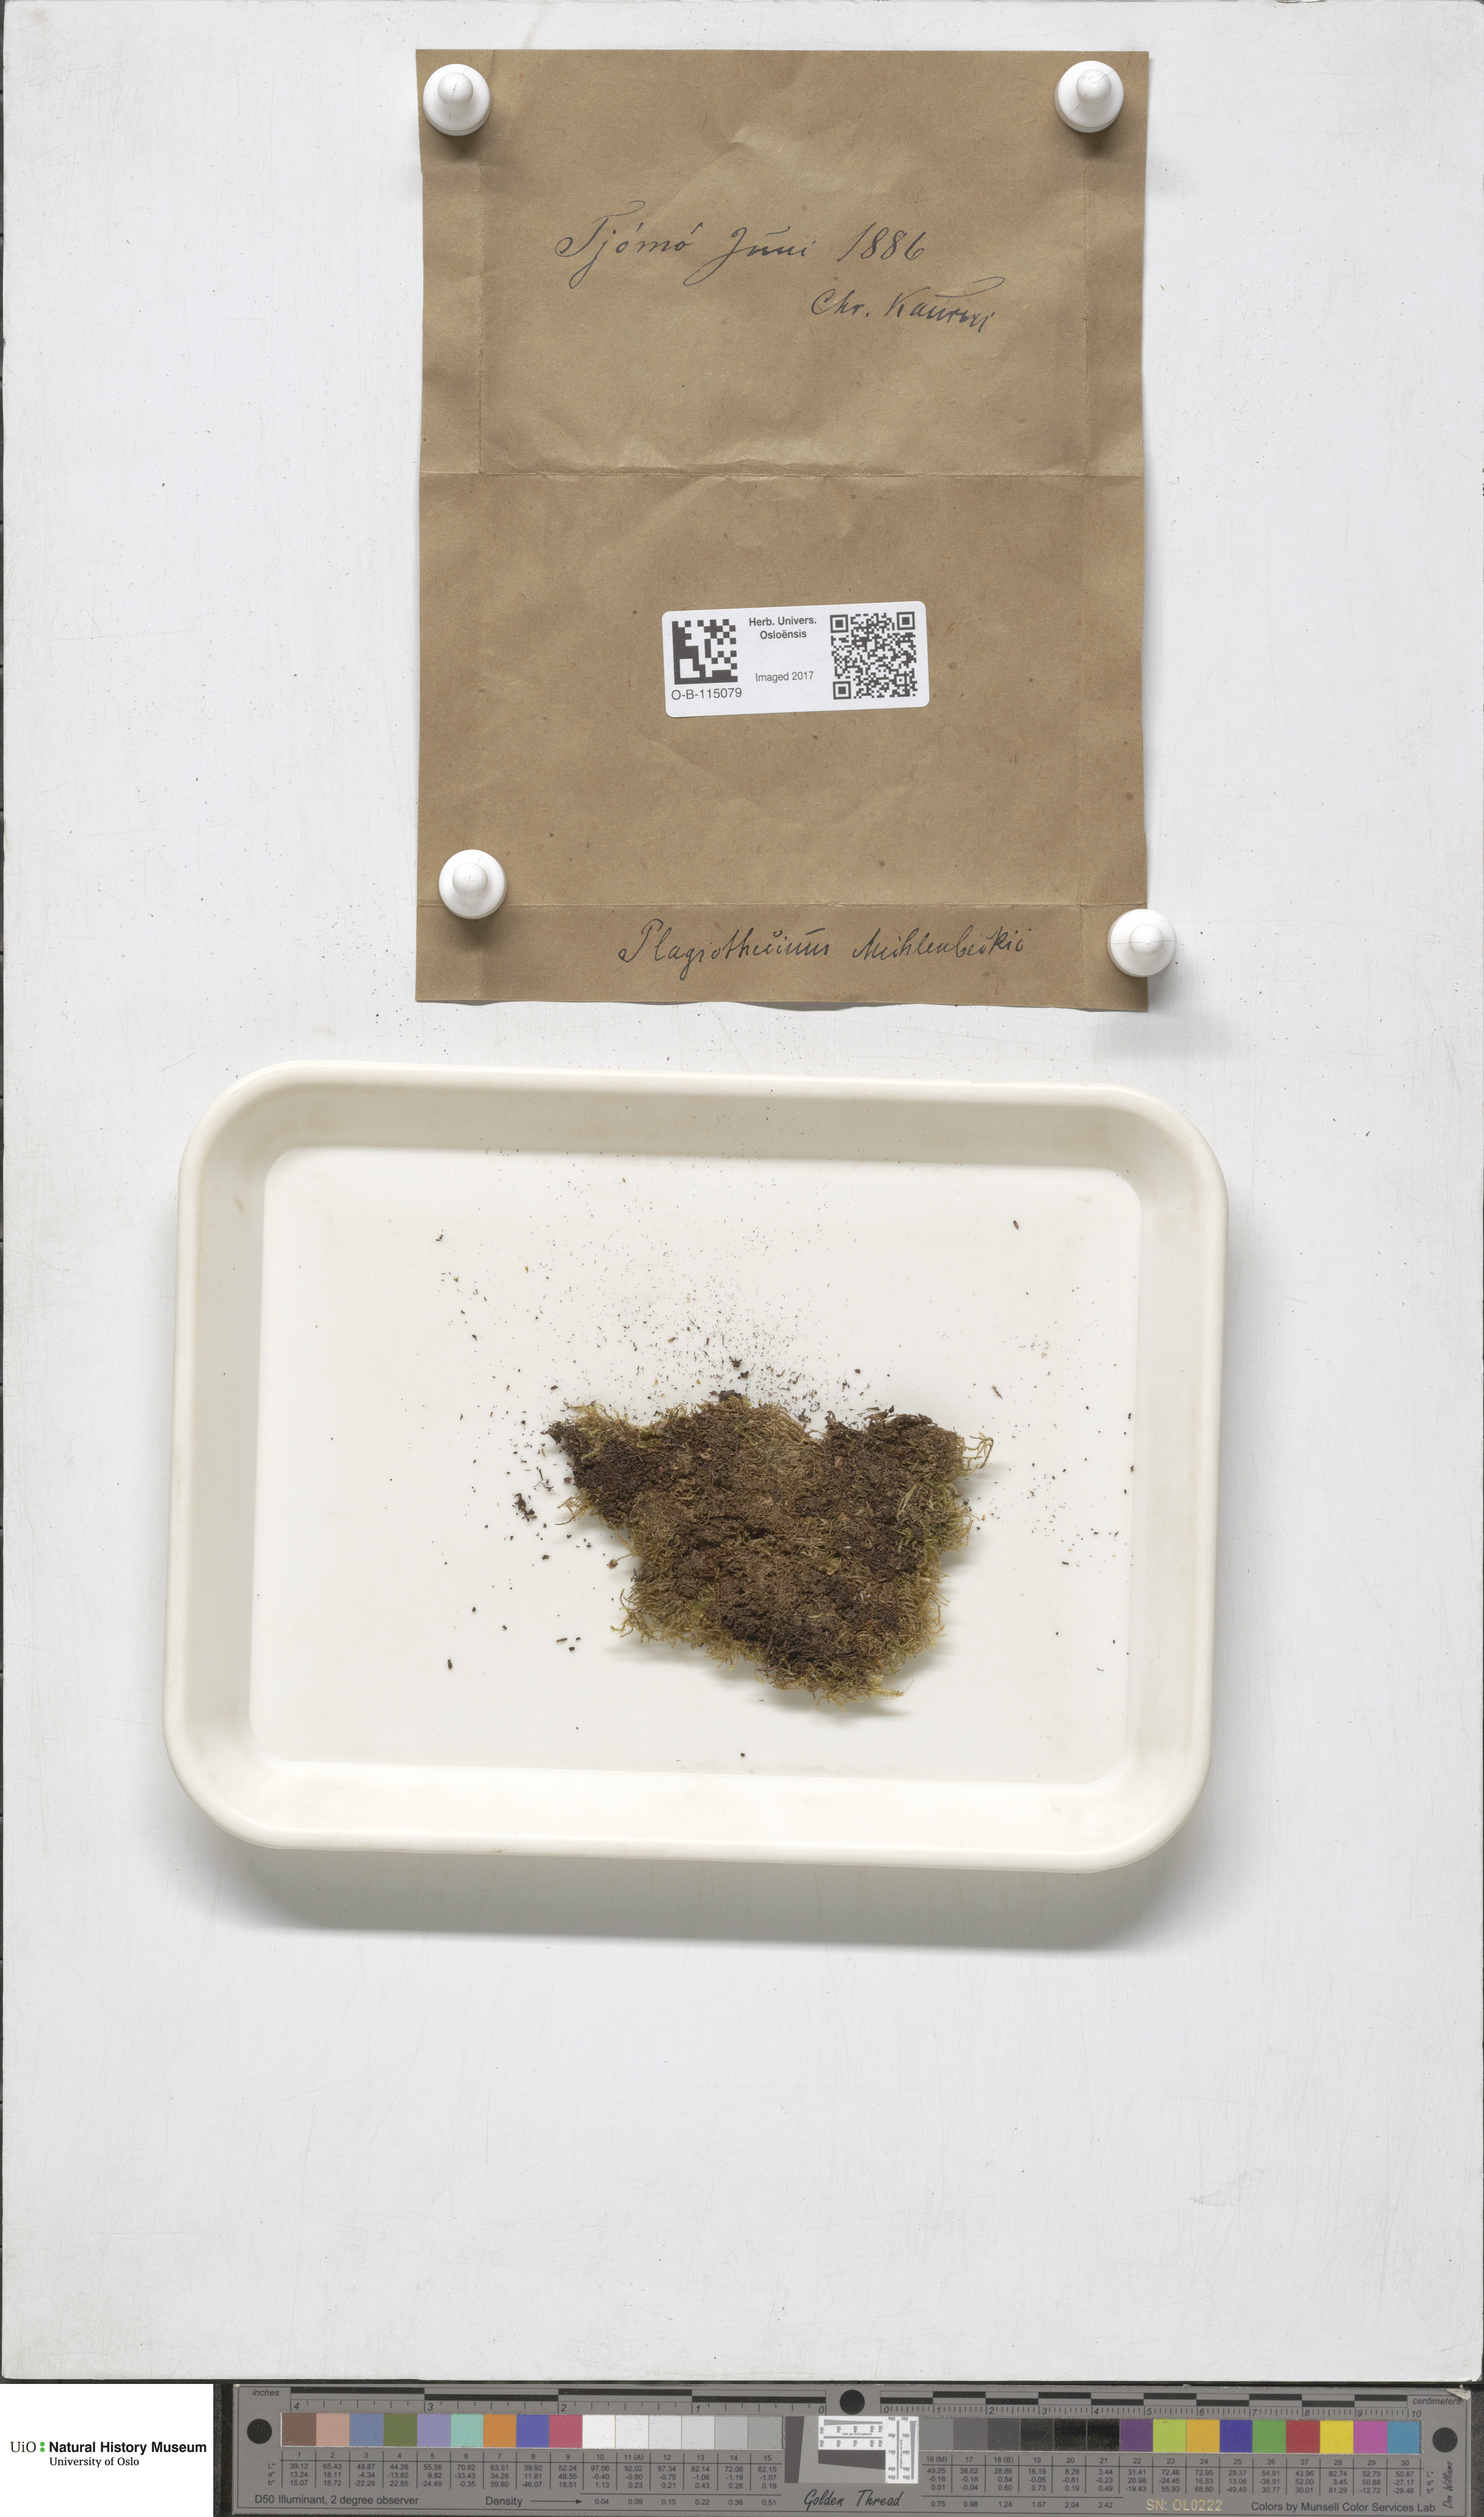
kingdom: Plantae
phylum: Bryophyta
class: Bryopsida
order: Hypnales
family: Plagiotheciaceae
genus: Herzogiella
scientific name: Herzogiella striatella
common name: Muhlenbeck's feather-moss
